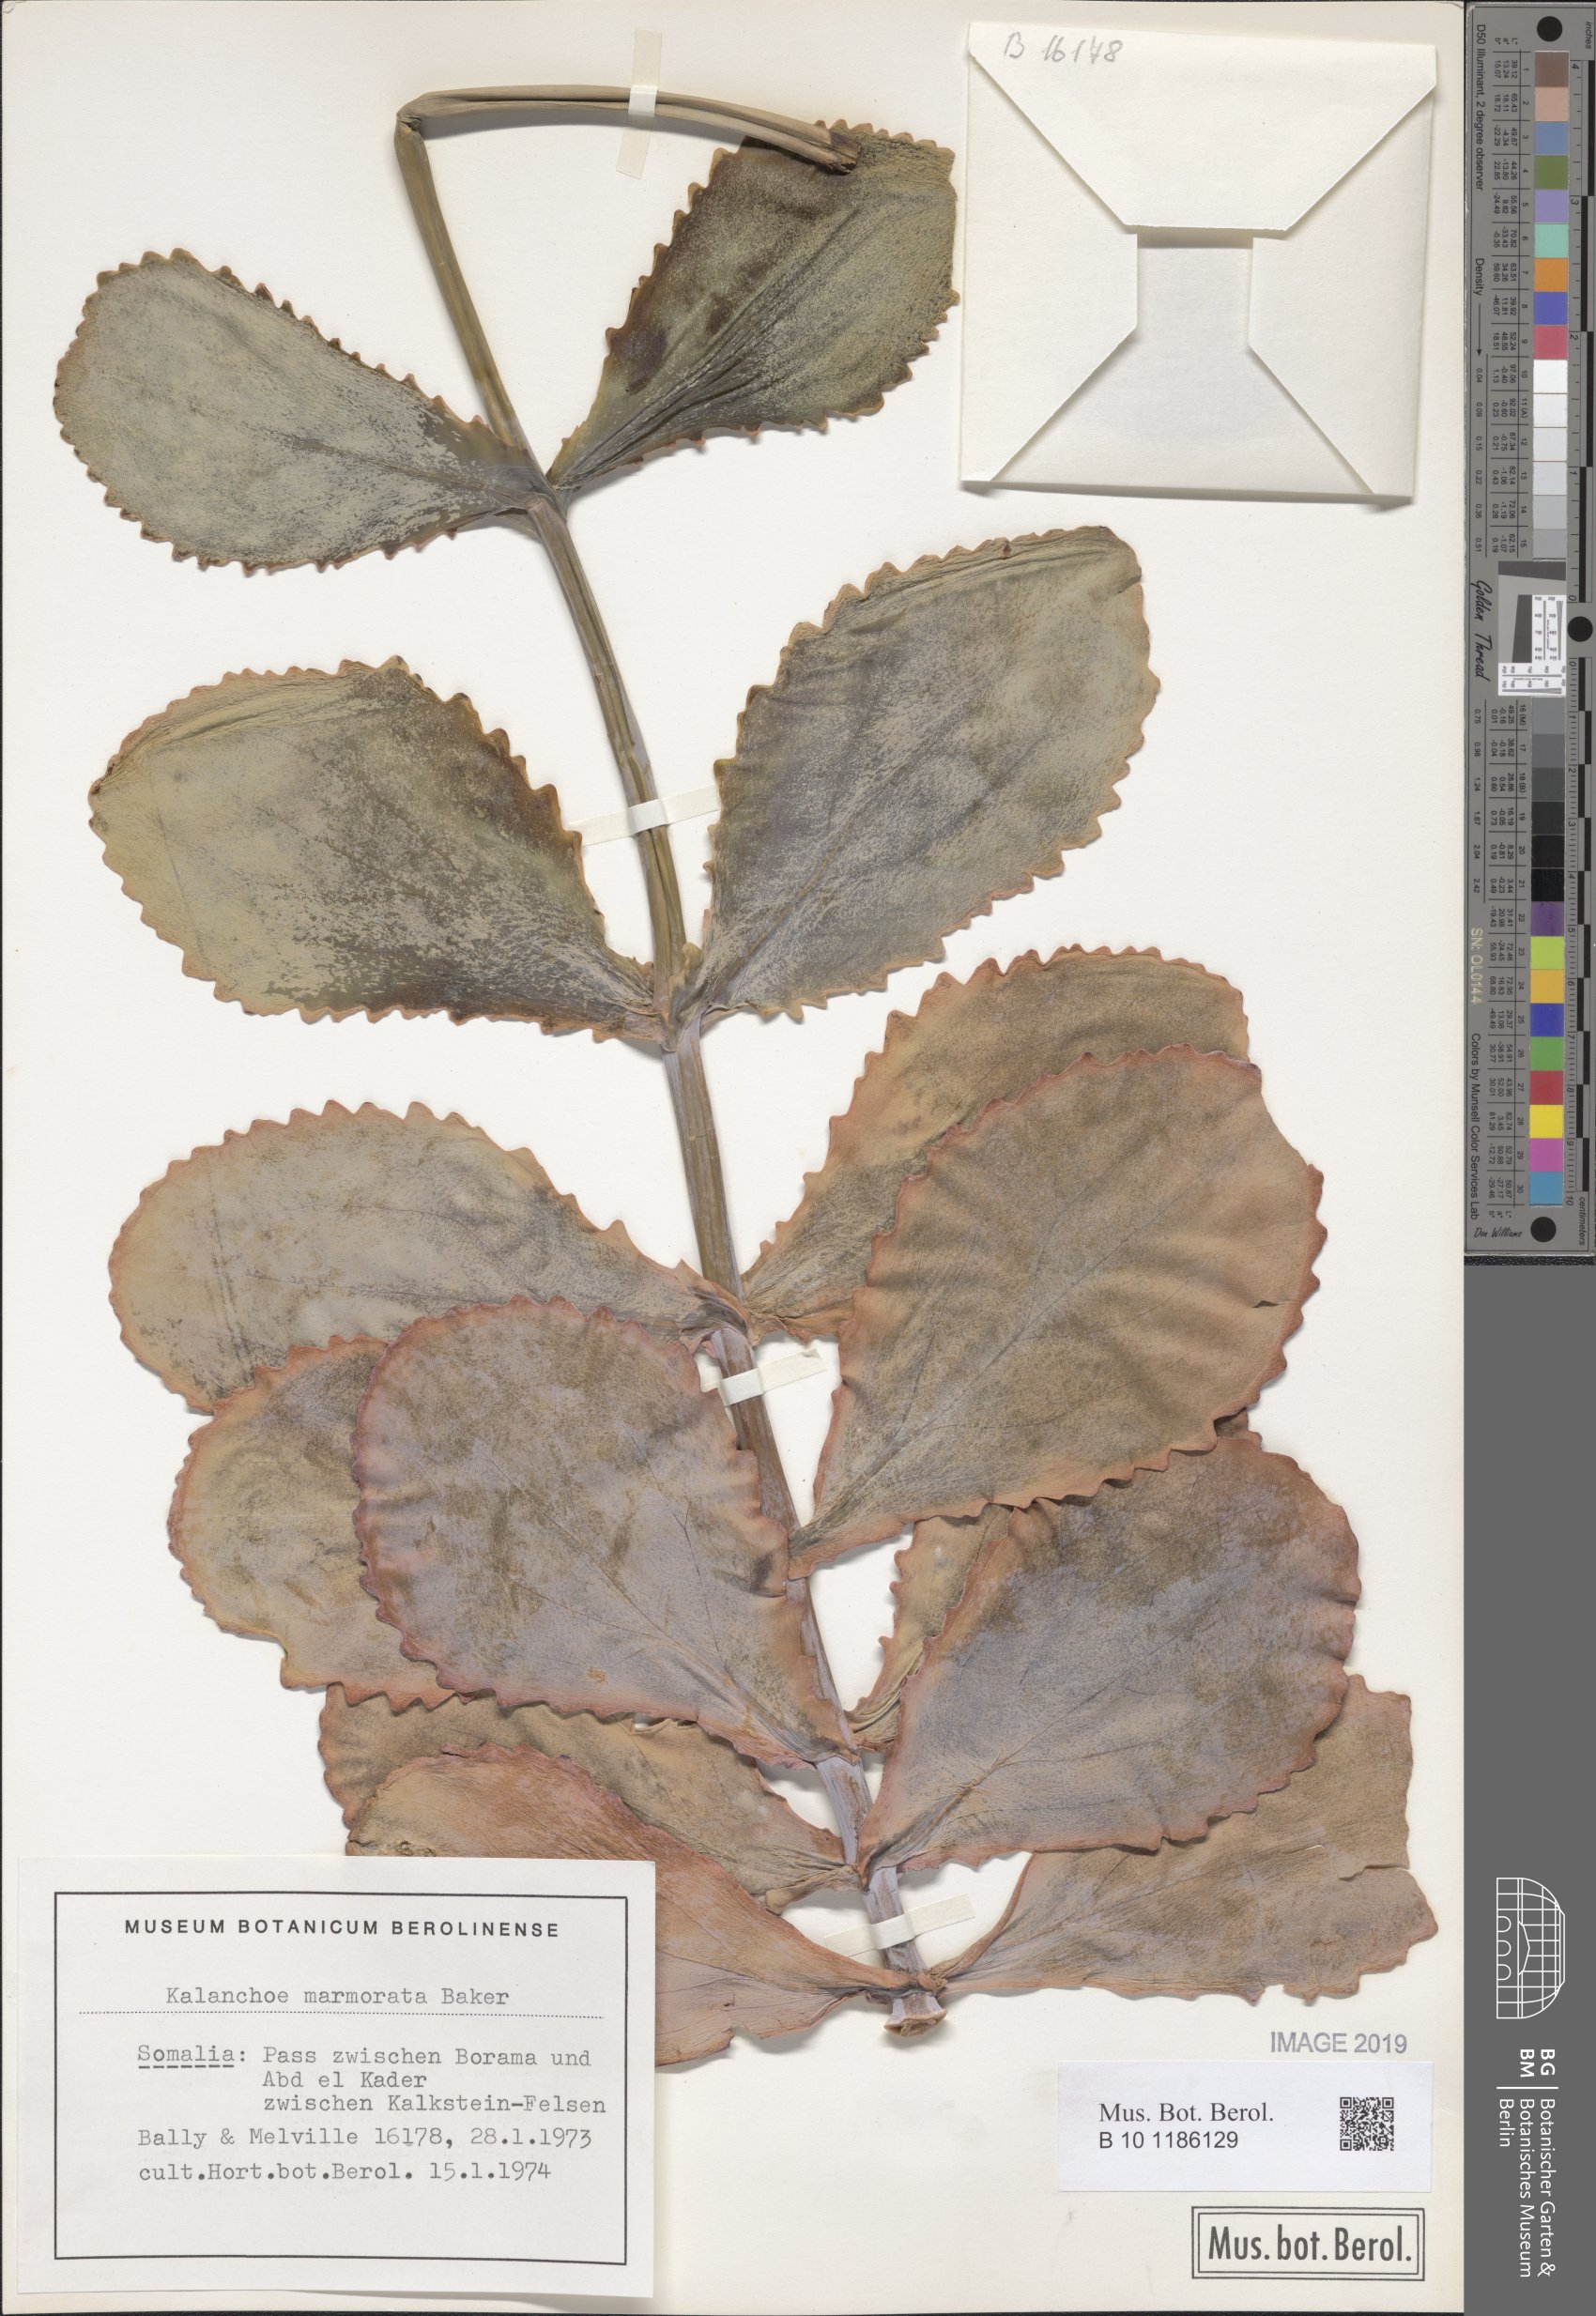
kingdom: Plantae
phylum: Tracheophyta
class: Magnoliopsida
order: Saxifragales
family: Crassulaceae
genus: Kalanchoe
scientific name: Kalanchoe marmorata
